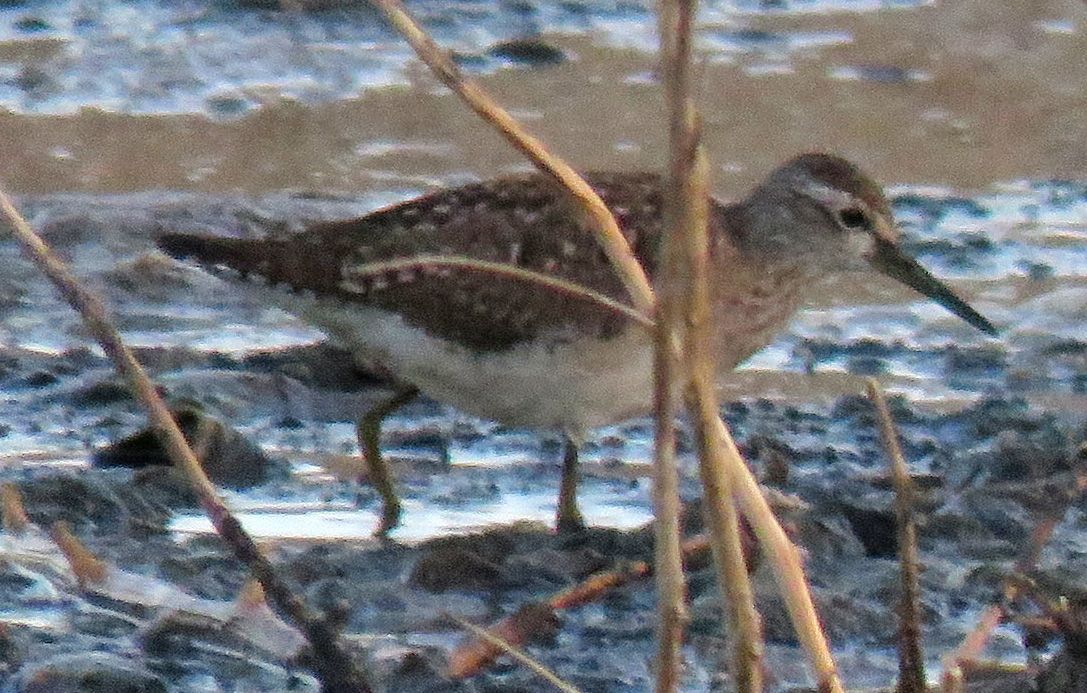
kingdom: Animalia
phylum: Chordata
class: Aves
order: Charadriiformes
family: Scolopacidae
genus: Tringa
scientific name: Tringa glareola
